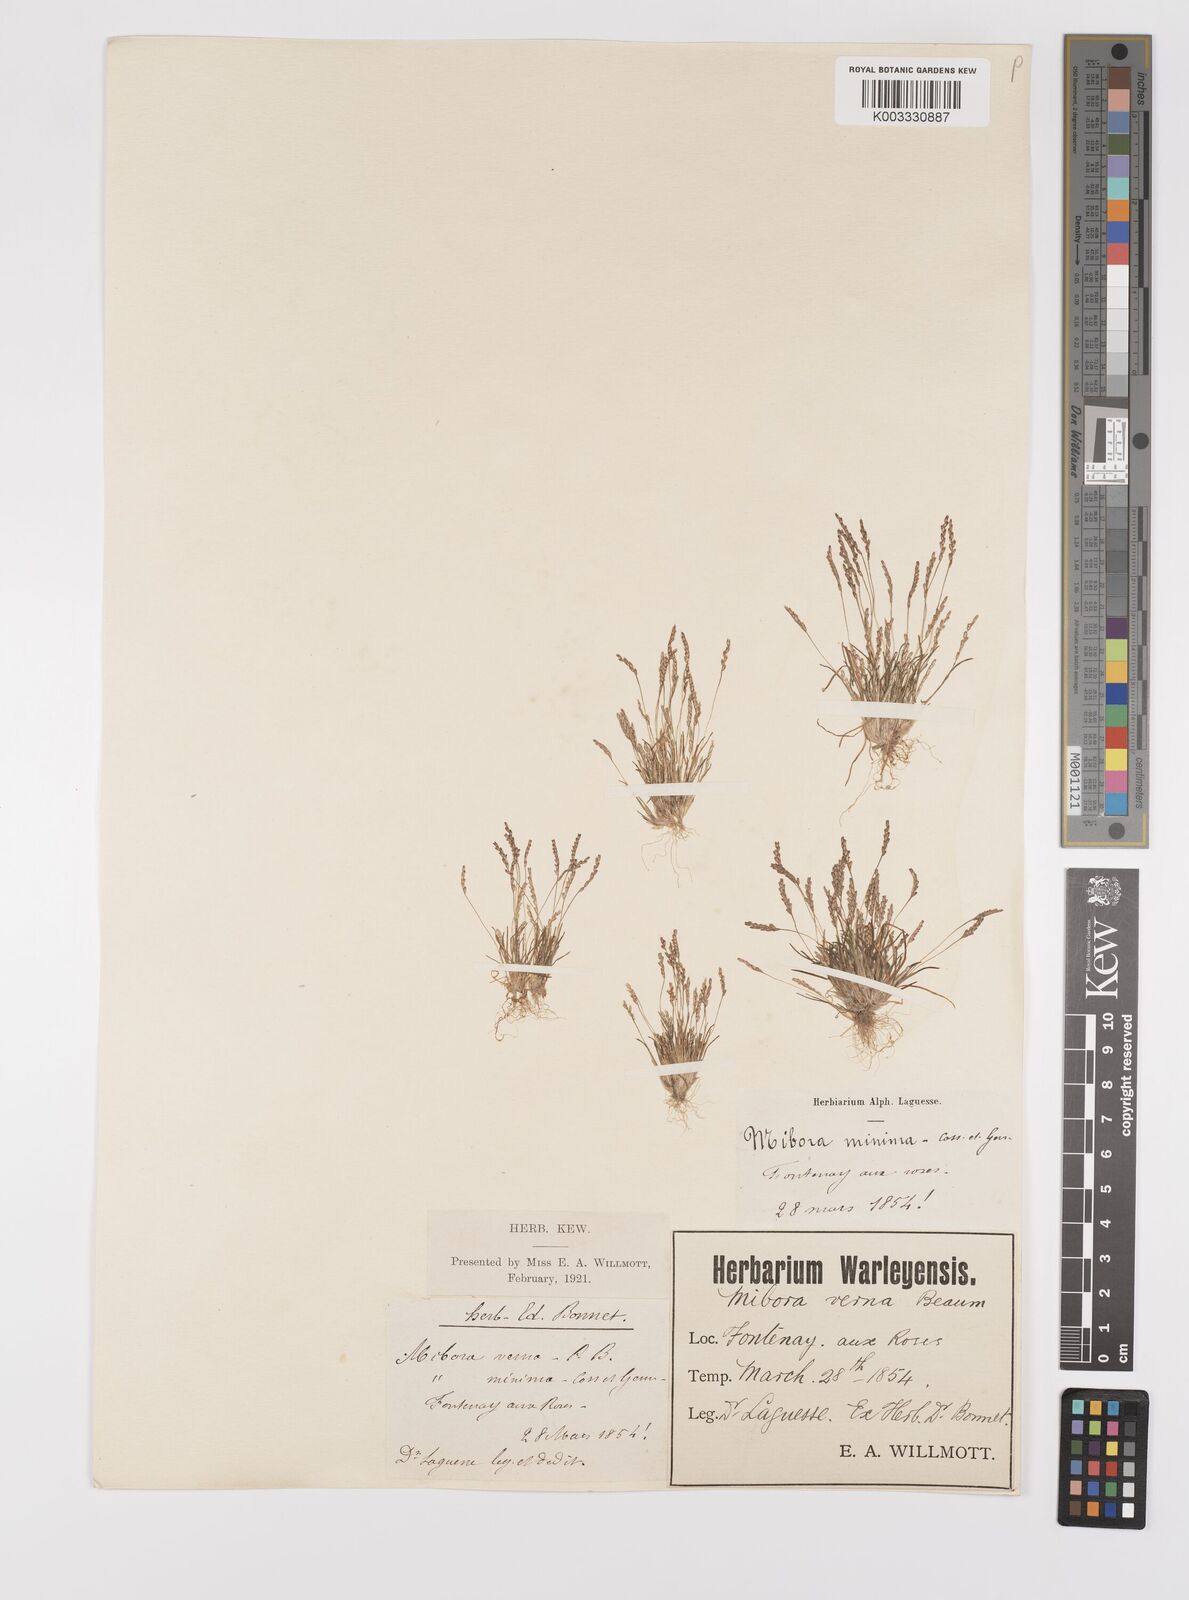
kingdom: Plantae
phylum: Tracheophyta
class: Liliopsida
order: Poales
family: Poaceae
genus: Mibora
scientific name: Mibora minima
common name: Early sand-grass
